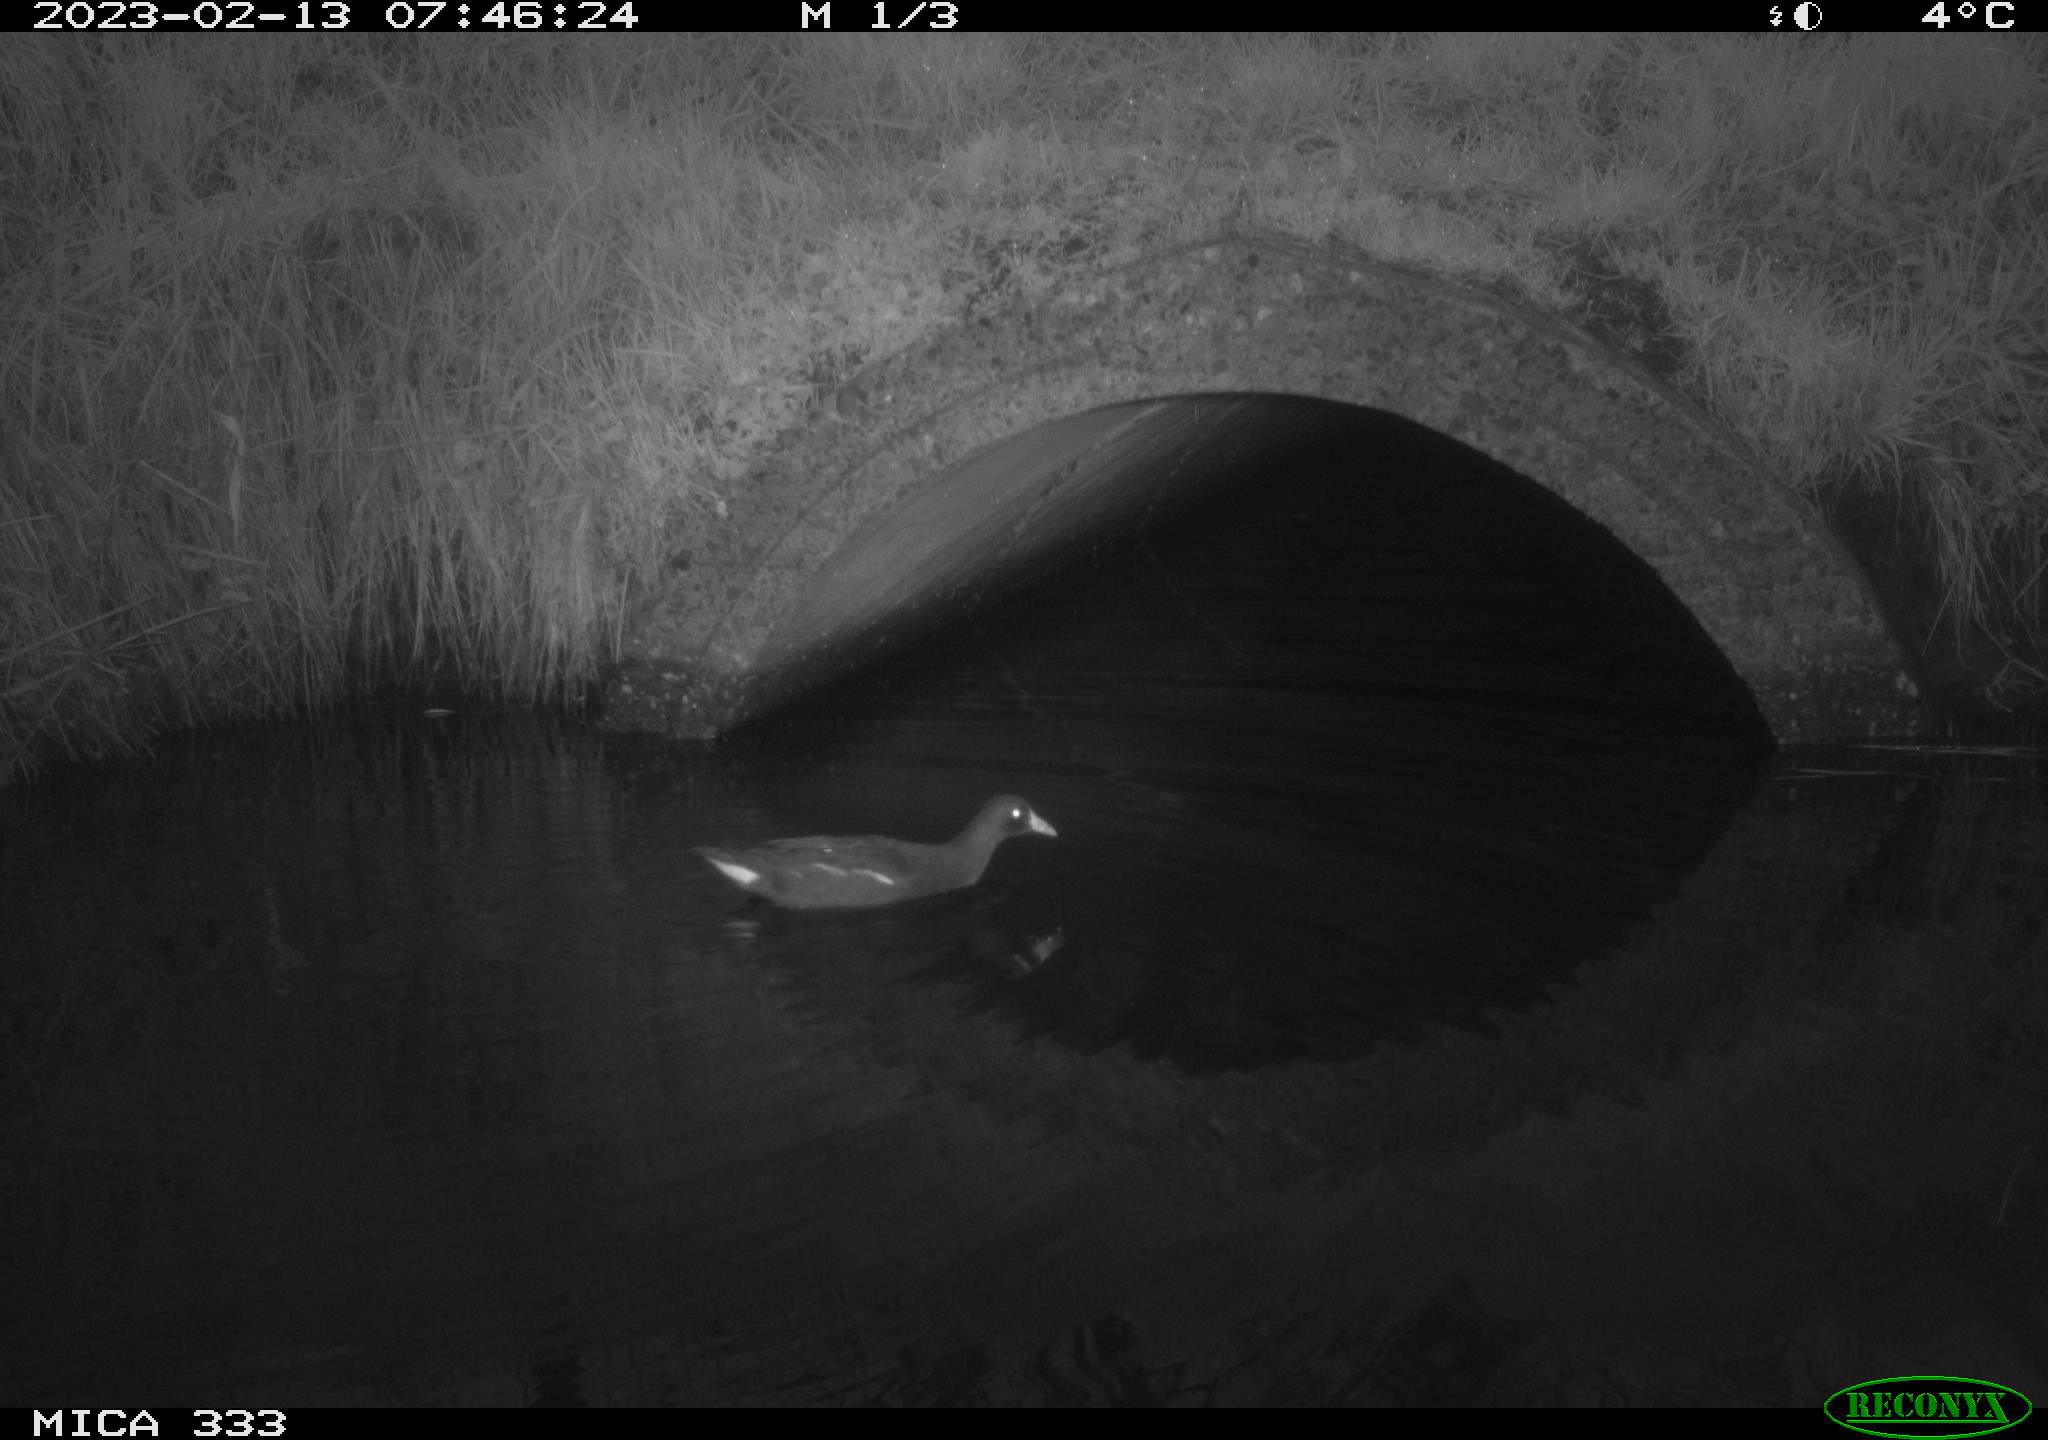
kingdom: Animalia
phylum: Chordata
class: Aves
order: Gruiformes
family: Rallidae
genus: Gallinula
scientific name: Gallinula chloropus
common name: Common moorhen
